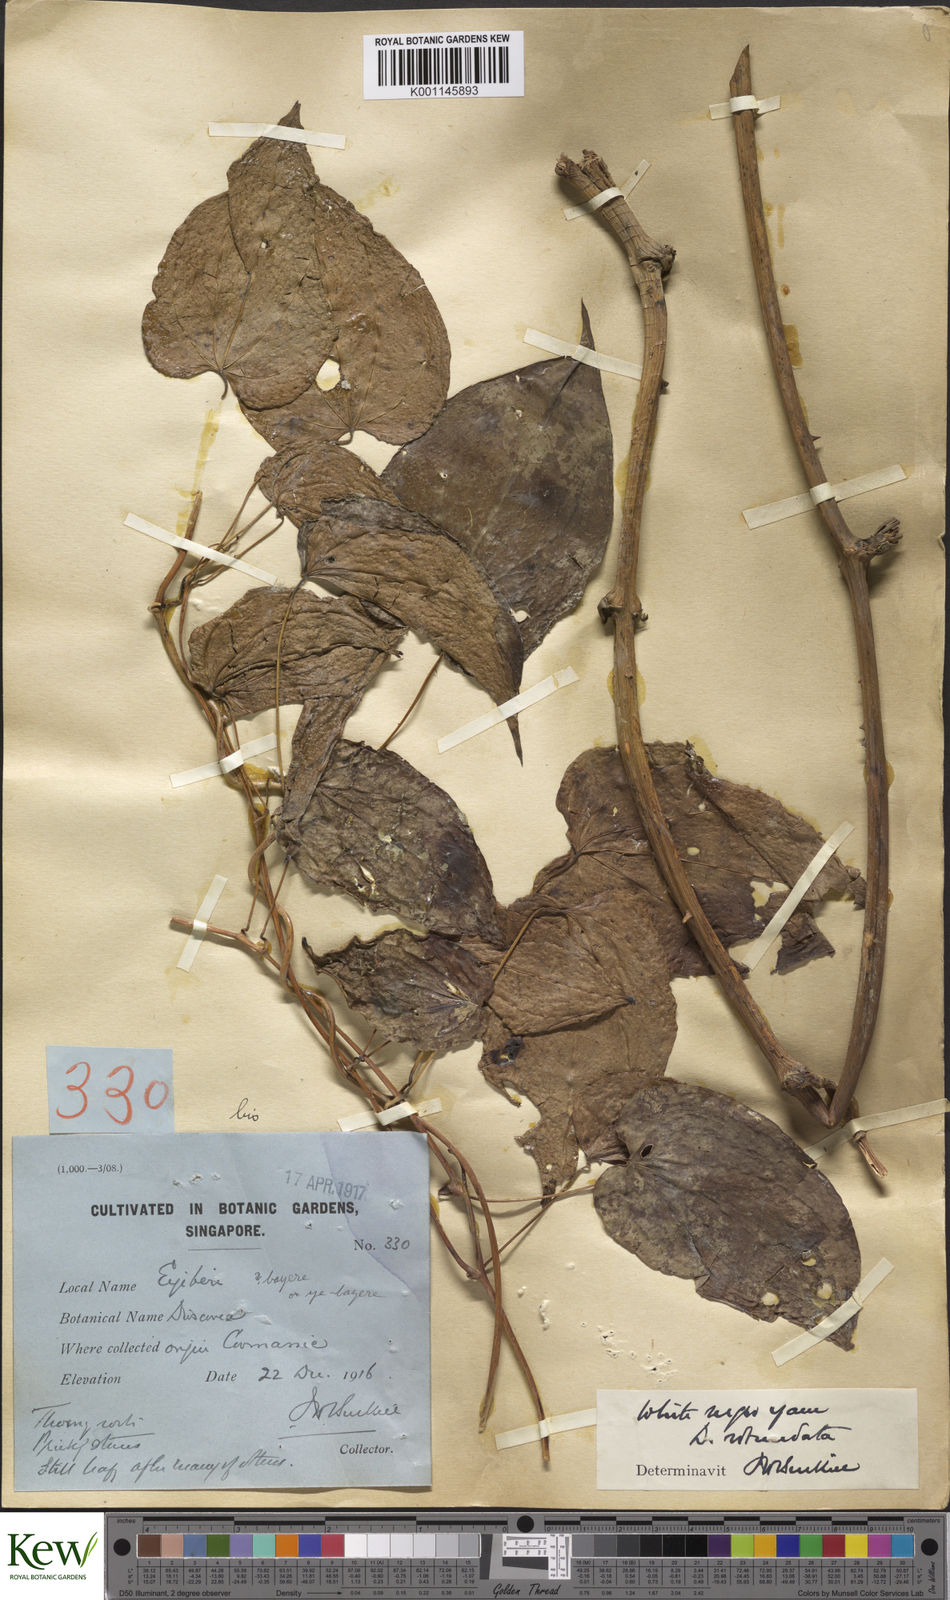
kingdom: Plantae
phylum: Tracheophyta
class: Liliopsida
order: Dioscoreales
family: Dioscoreaceae
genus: Dioscorea
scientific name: Dioscorea cayenensis
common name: Attoto yam
